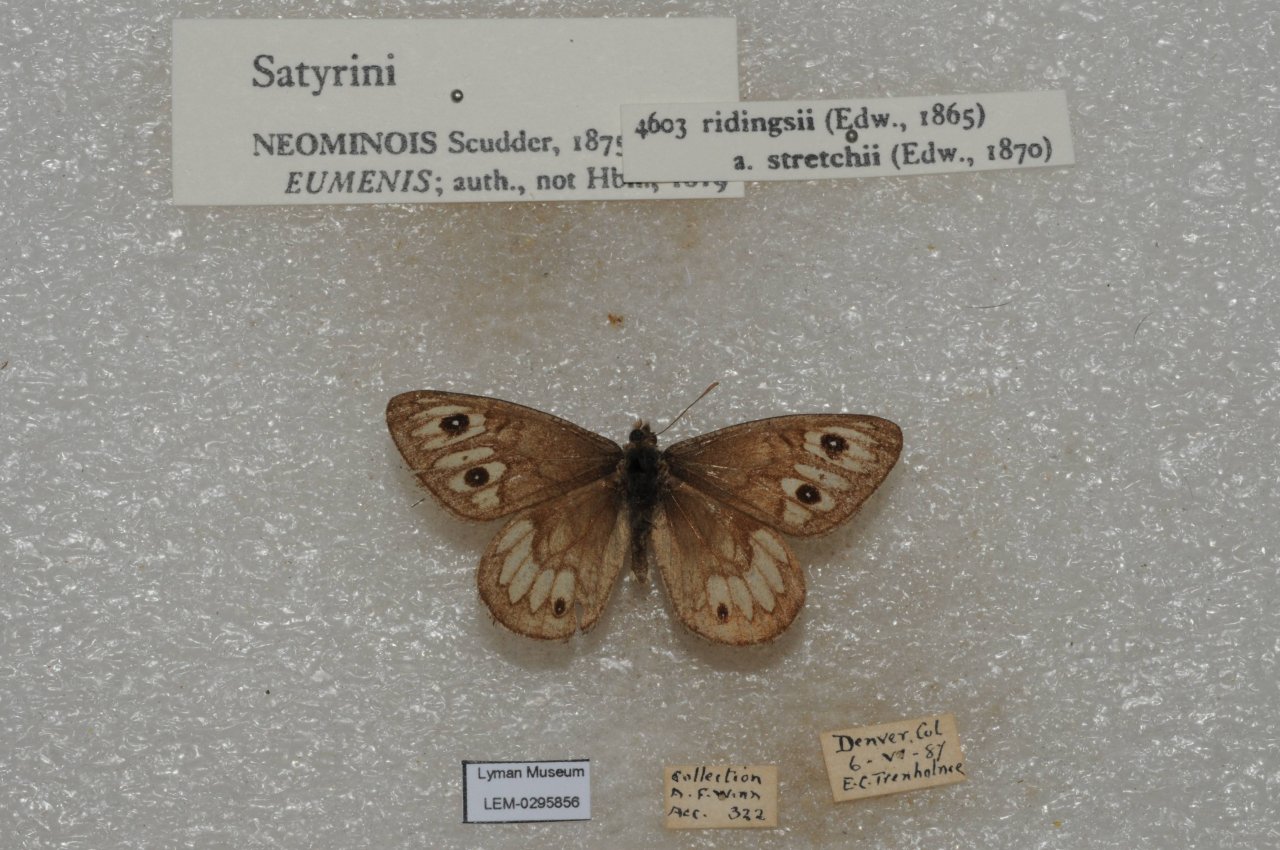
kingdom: Animalia
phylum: Arthropoda
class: Insecta
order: Lepidoptera
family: Nymphalidae
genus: Neominois
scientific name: Neominois ridingsii
